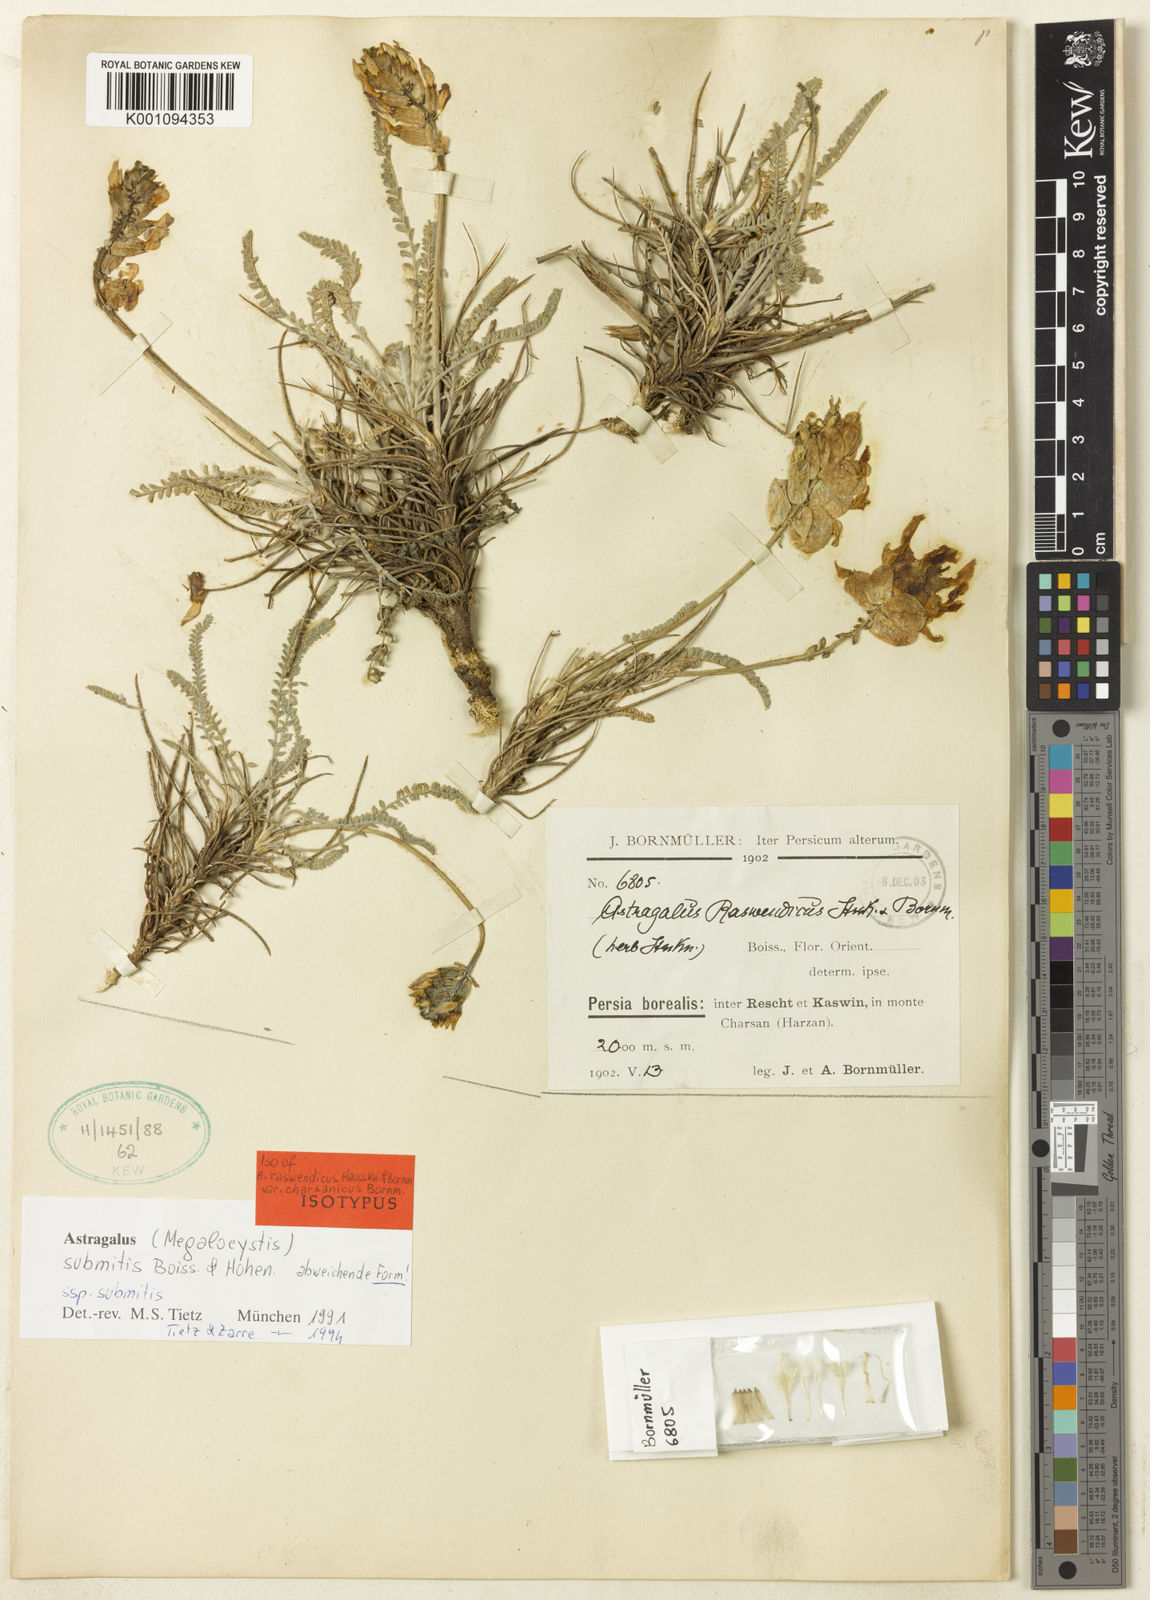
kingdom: Plantae
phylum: Tracheophyta
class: Magnoliopsida
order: Fabales
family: Fabaceae
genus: Astragalus
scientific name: Astragalus
